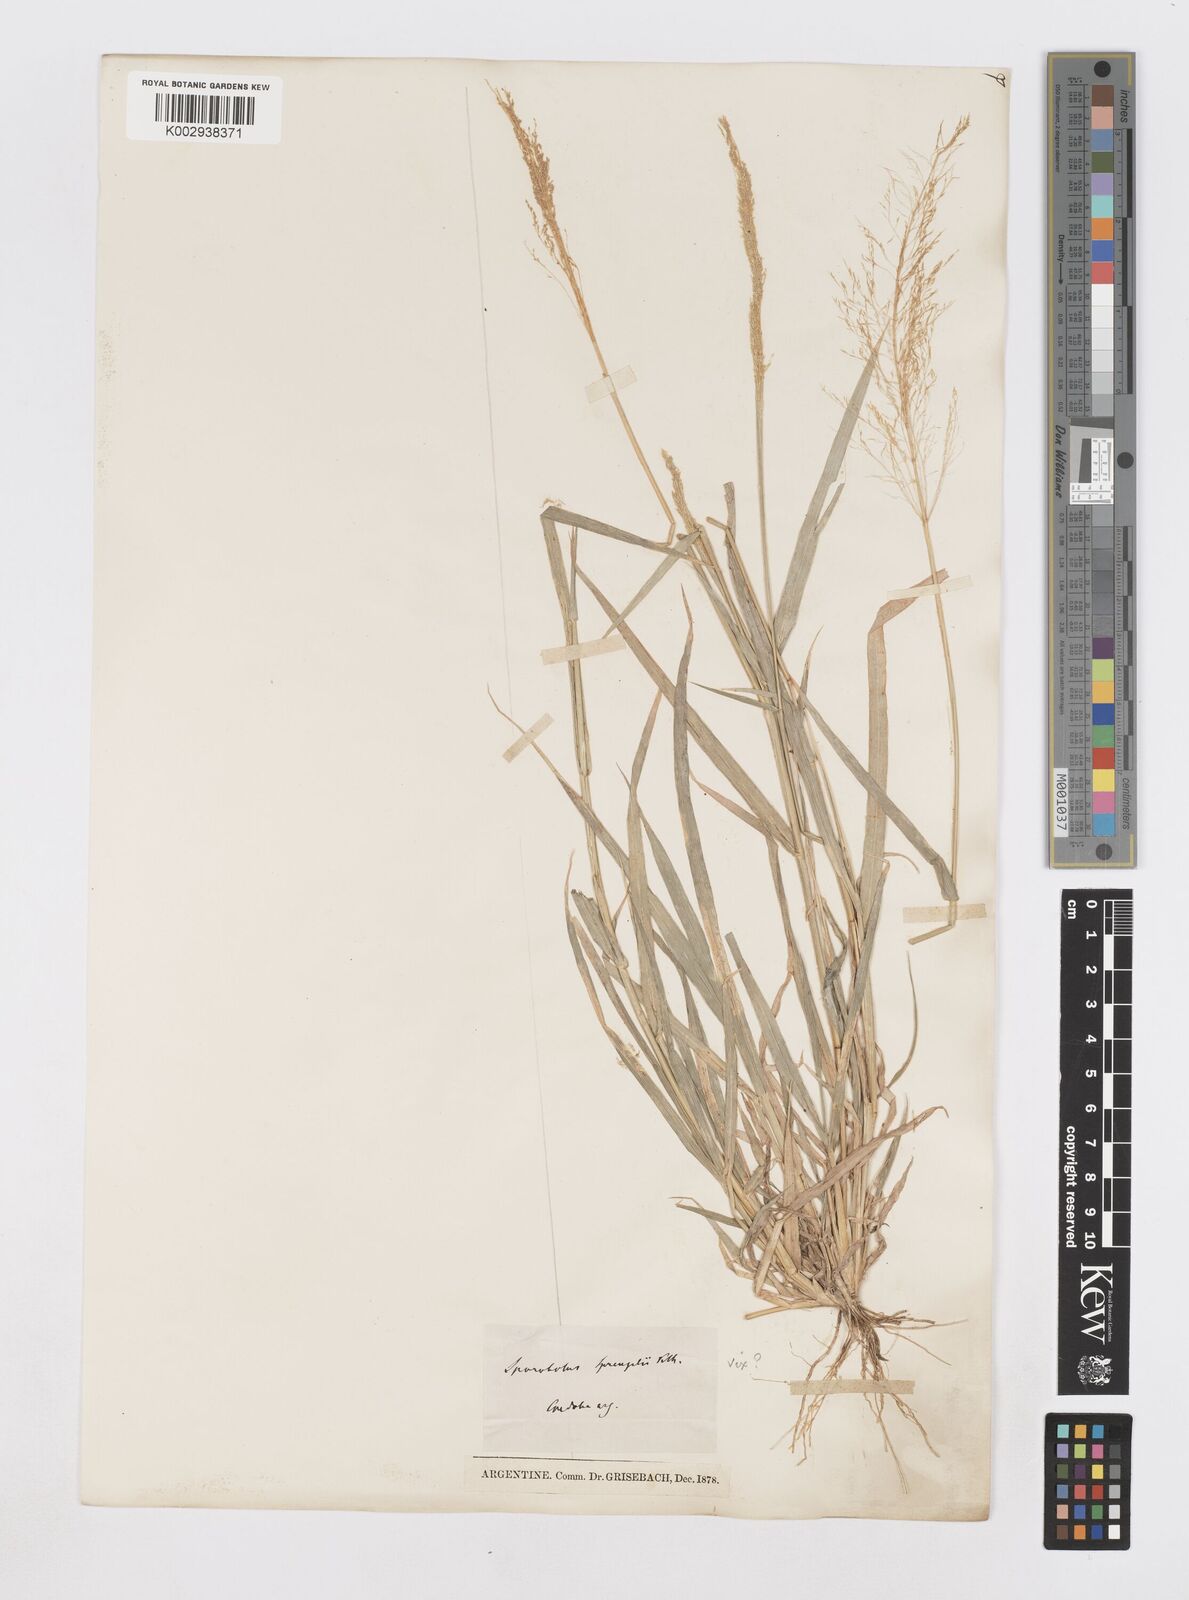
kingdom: Plantae
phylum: Tracheophyta
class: Liliopsida
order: Poales
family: Poaceae
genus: Sporobolus
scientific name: Sporobolus pyramidatus
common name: Whorled dropseed
